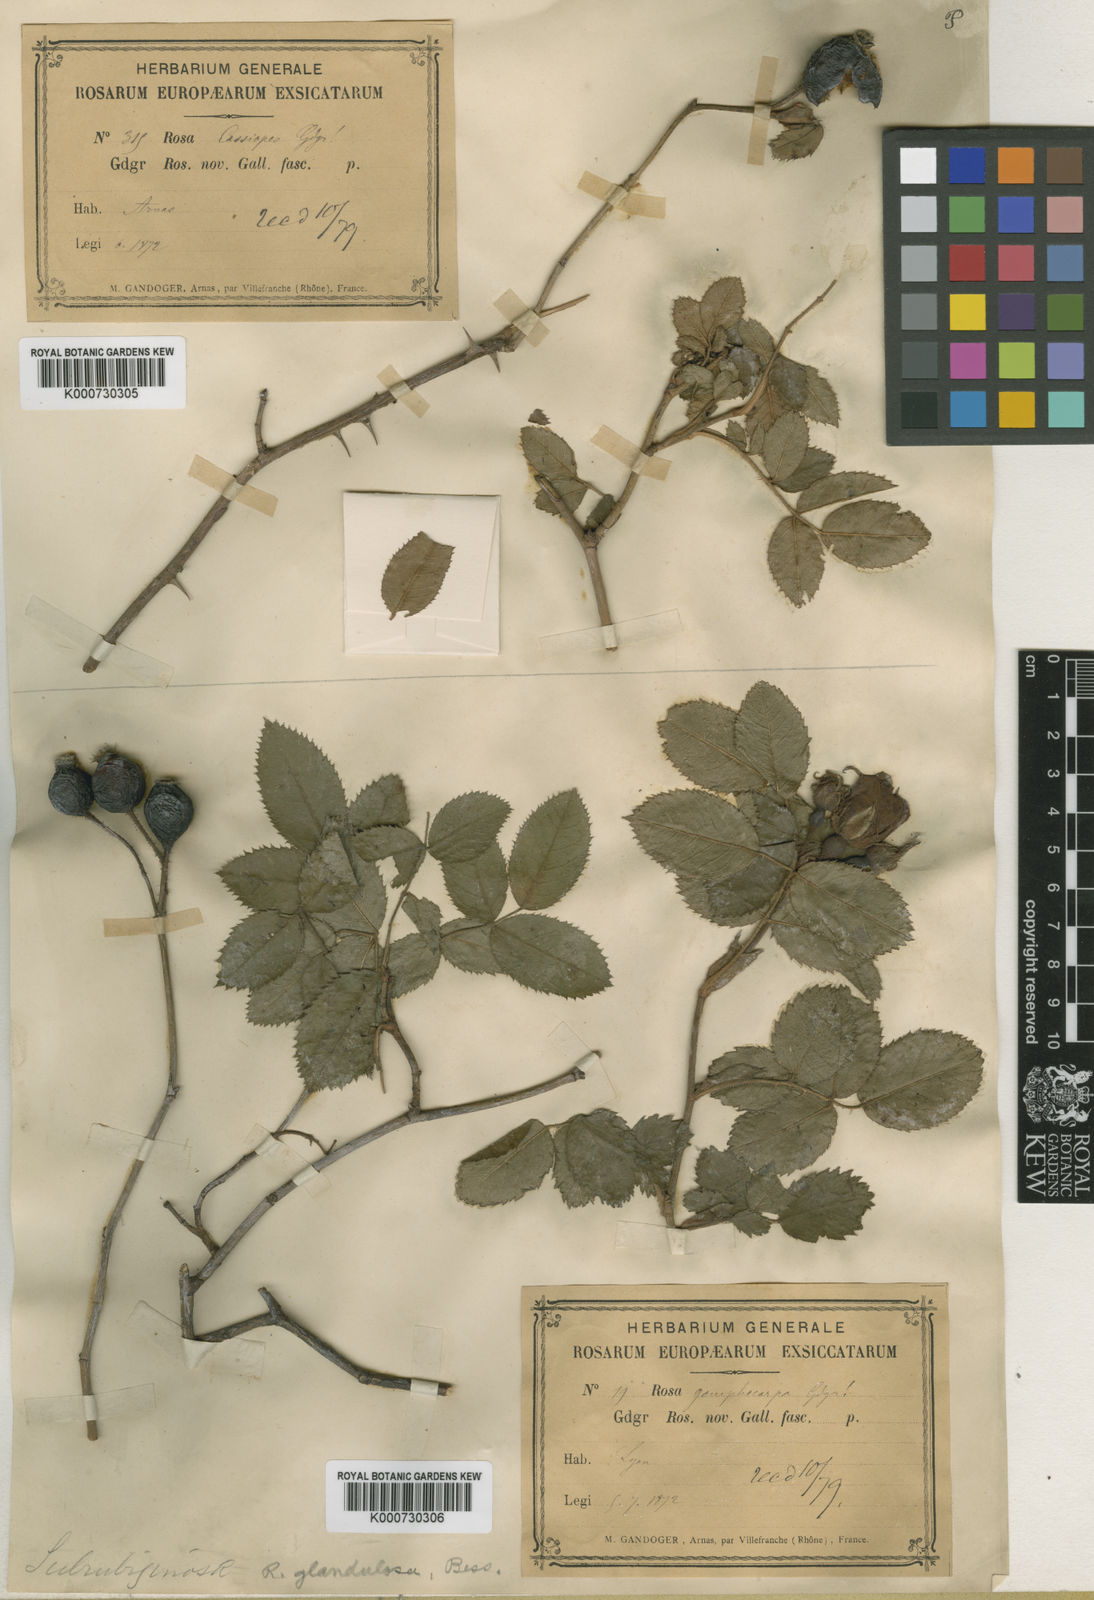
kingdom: Plantae
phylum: Tracheophyta
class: Magnoliopsida
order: Rosales
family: Rosaceae
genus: Rosa
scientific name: Rosa marginata
